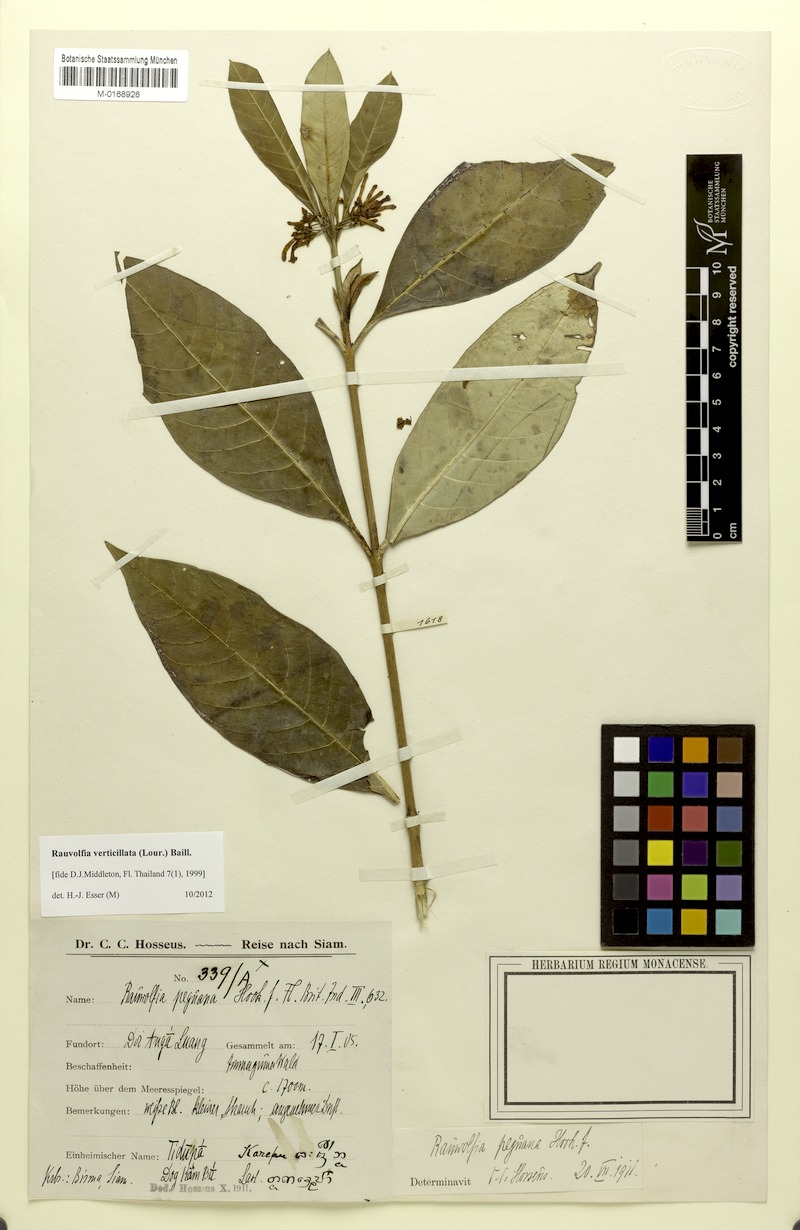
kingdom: Plantae
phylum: Tracheophyta
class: Magnoliopsida
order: Gentianales
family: Apocynaceae
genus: Rauvolfia
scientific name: Rauvolfia verticillata
